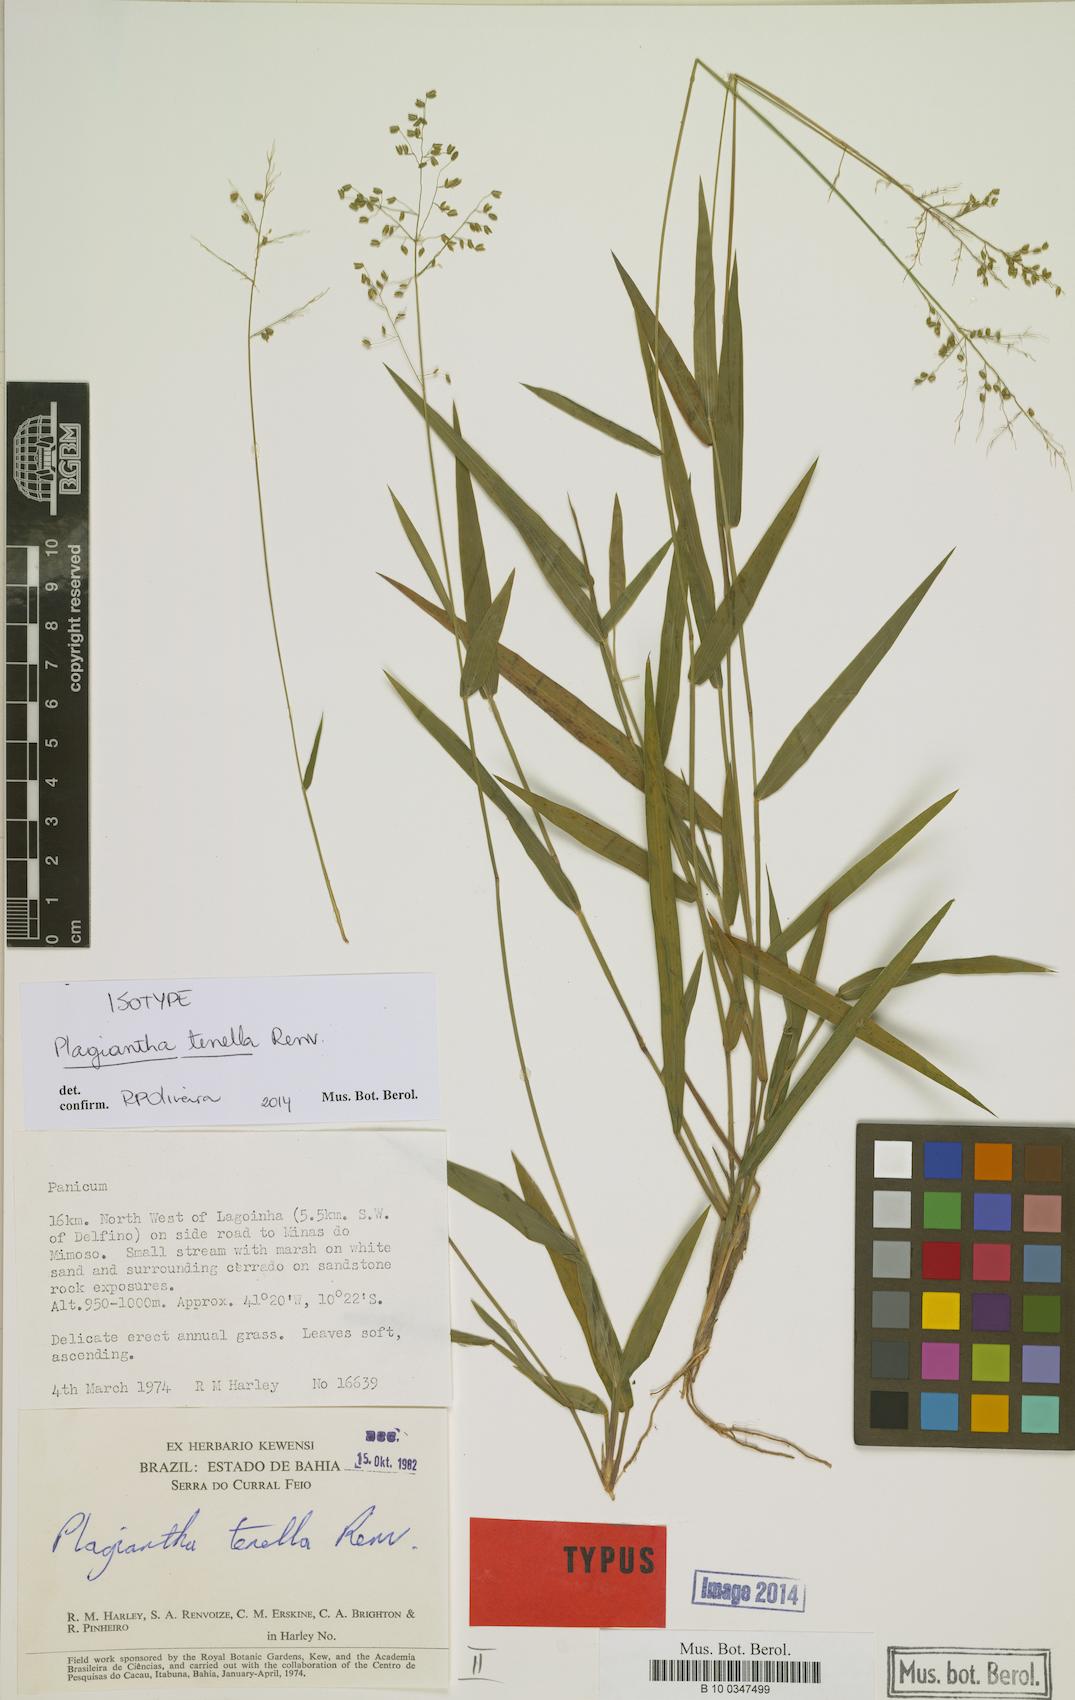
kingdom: Plantae
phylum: Tracheophyta
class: Liliopsida
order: Poales
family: Poaceae
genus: Plagiantha
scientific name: Plagiantha tenella
